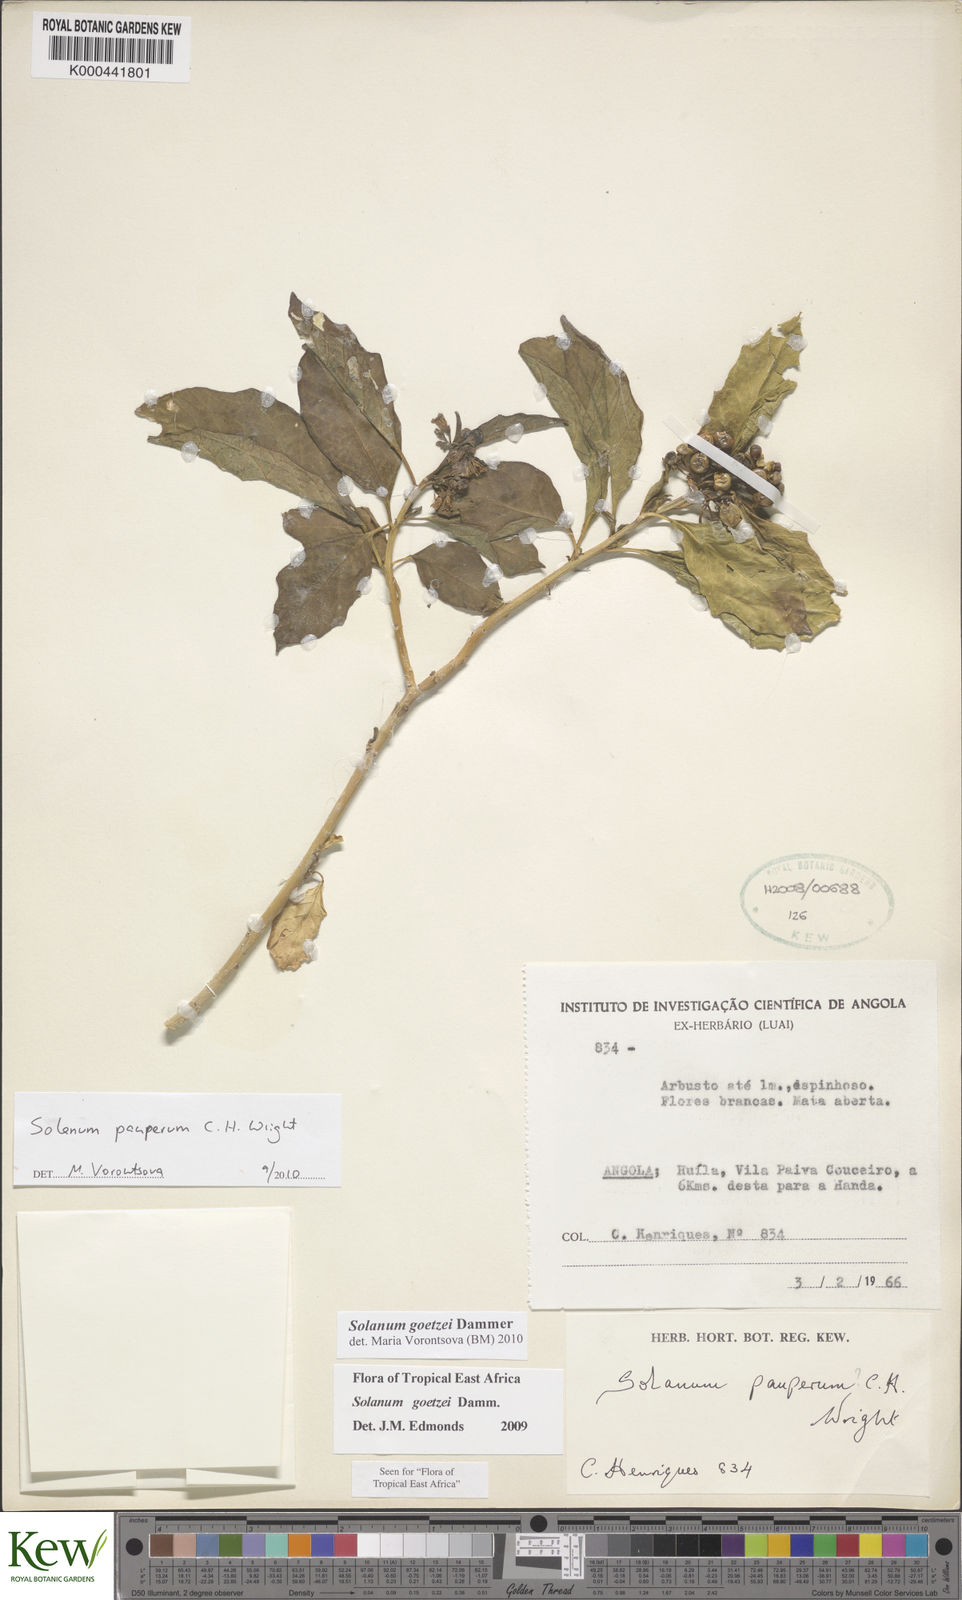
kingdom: Plantae
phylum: Tracheophyta
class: Magnoliopsida
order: Solanales
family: Solanaceae
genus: Solanum
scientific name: Solanum anomalum
